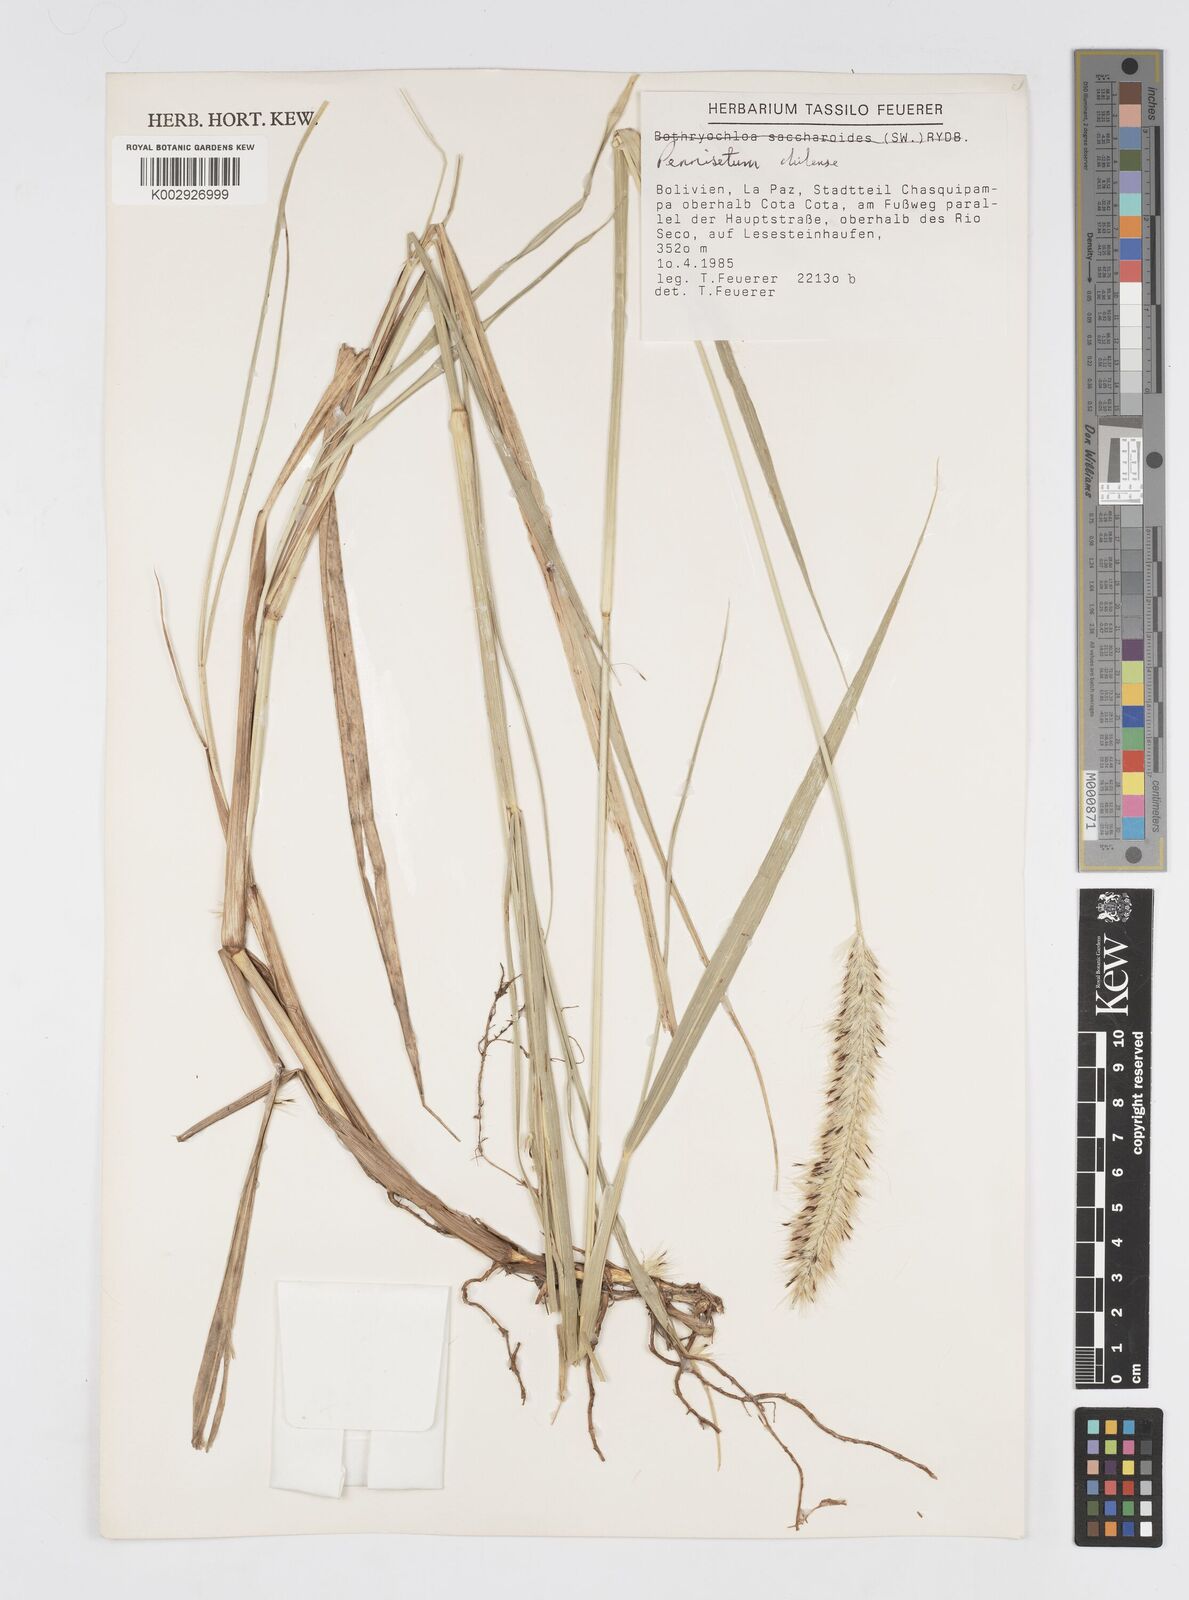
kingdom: Plantae
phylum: Tracheophyta
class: Liliopsida
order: Poales
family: Poaceae
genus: Cenchrus
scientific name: Cenchrus chilensis
